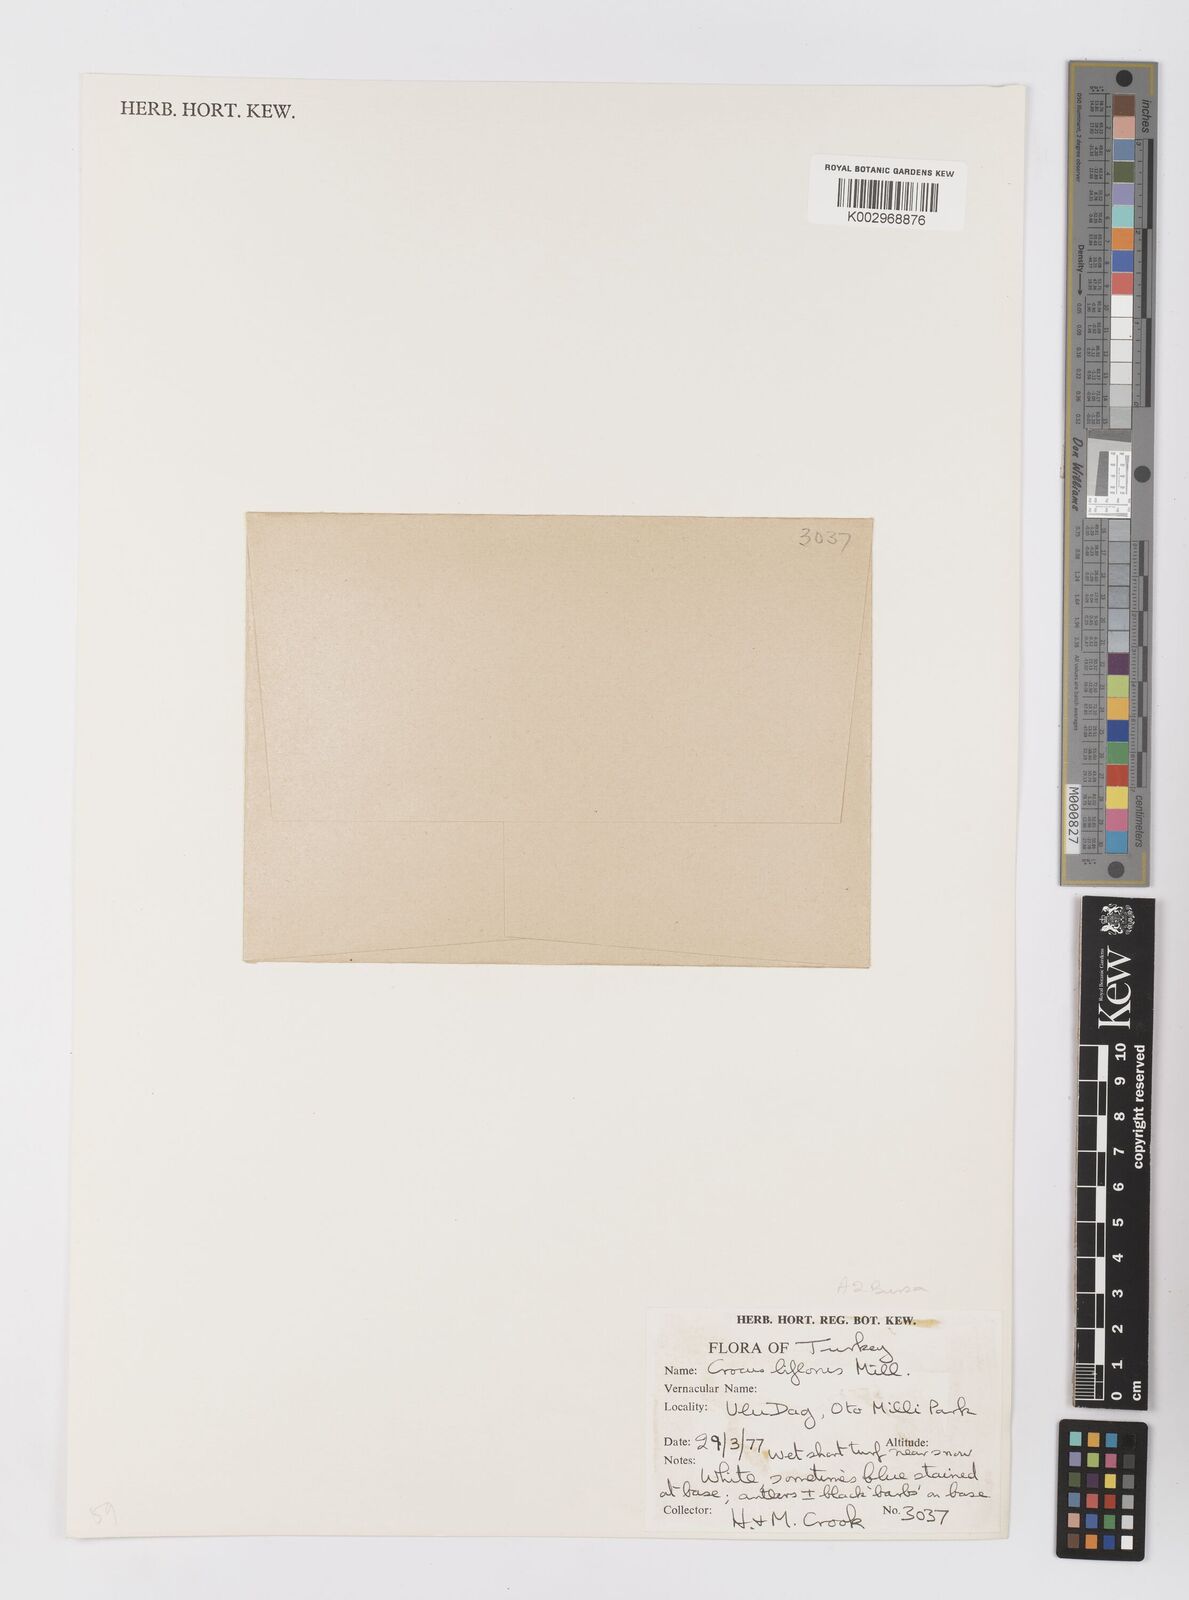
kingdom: Plantae
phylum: Tracheophyta
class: Liliopsida
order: Asparagales
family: Iridaceae
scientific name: Iridaceae
